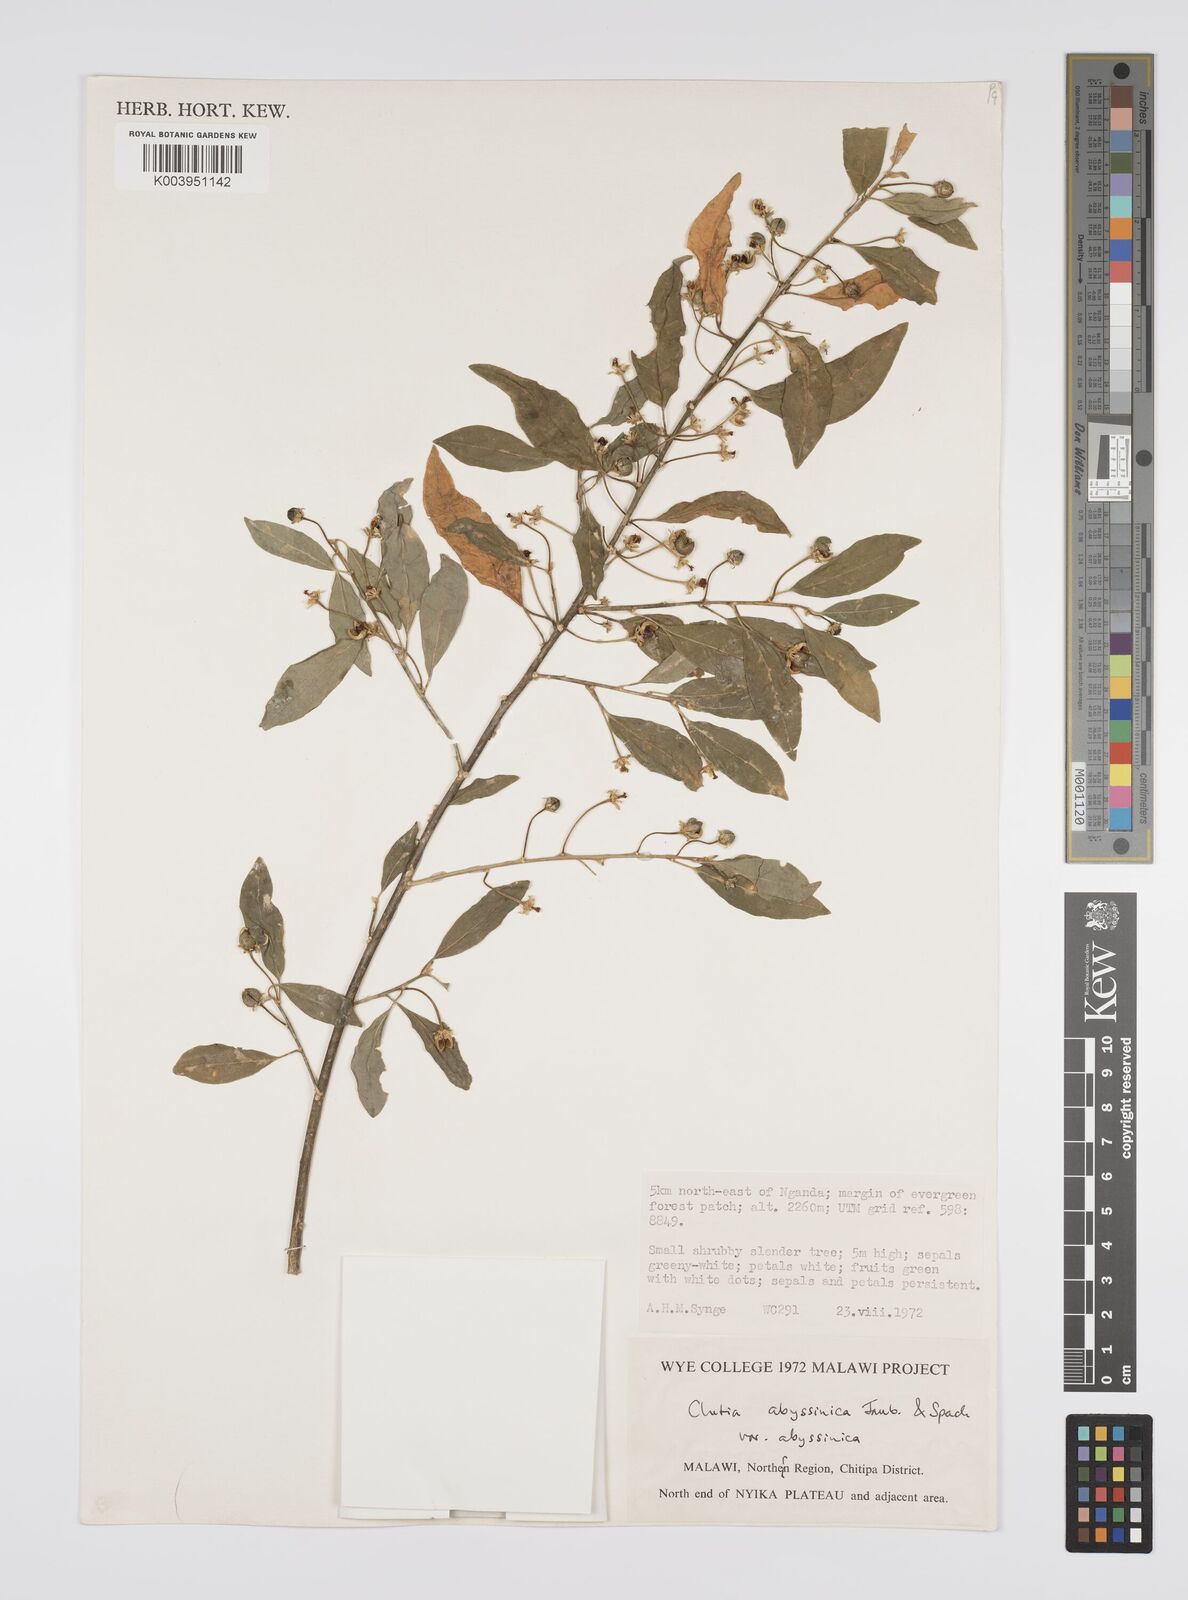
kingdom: Plantae
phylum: Tracheophyta
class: Magnoliopsida
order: Malpighiales
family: Peraceae
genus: Clutia
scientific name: Clutia abyssinica
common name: Large lightning bush
